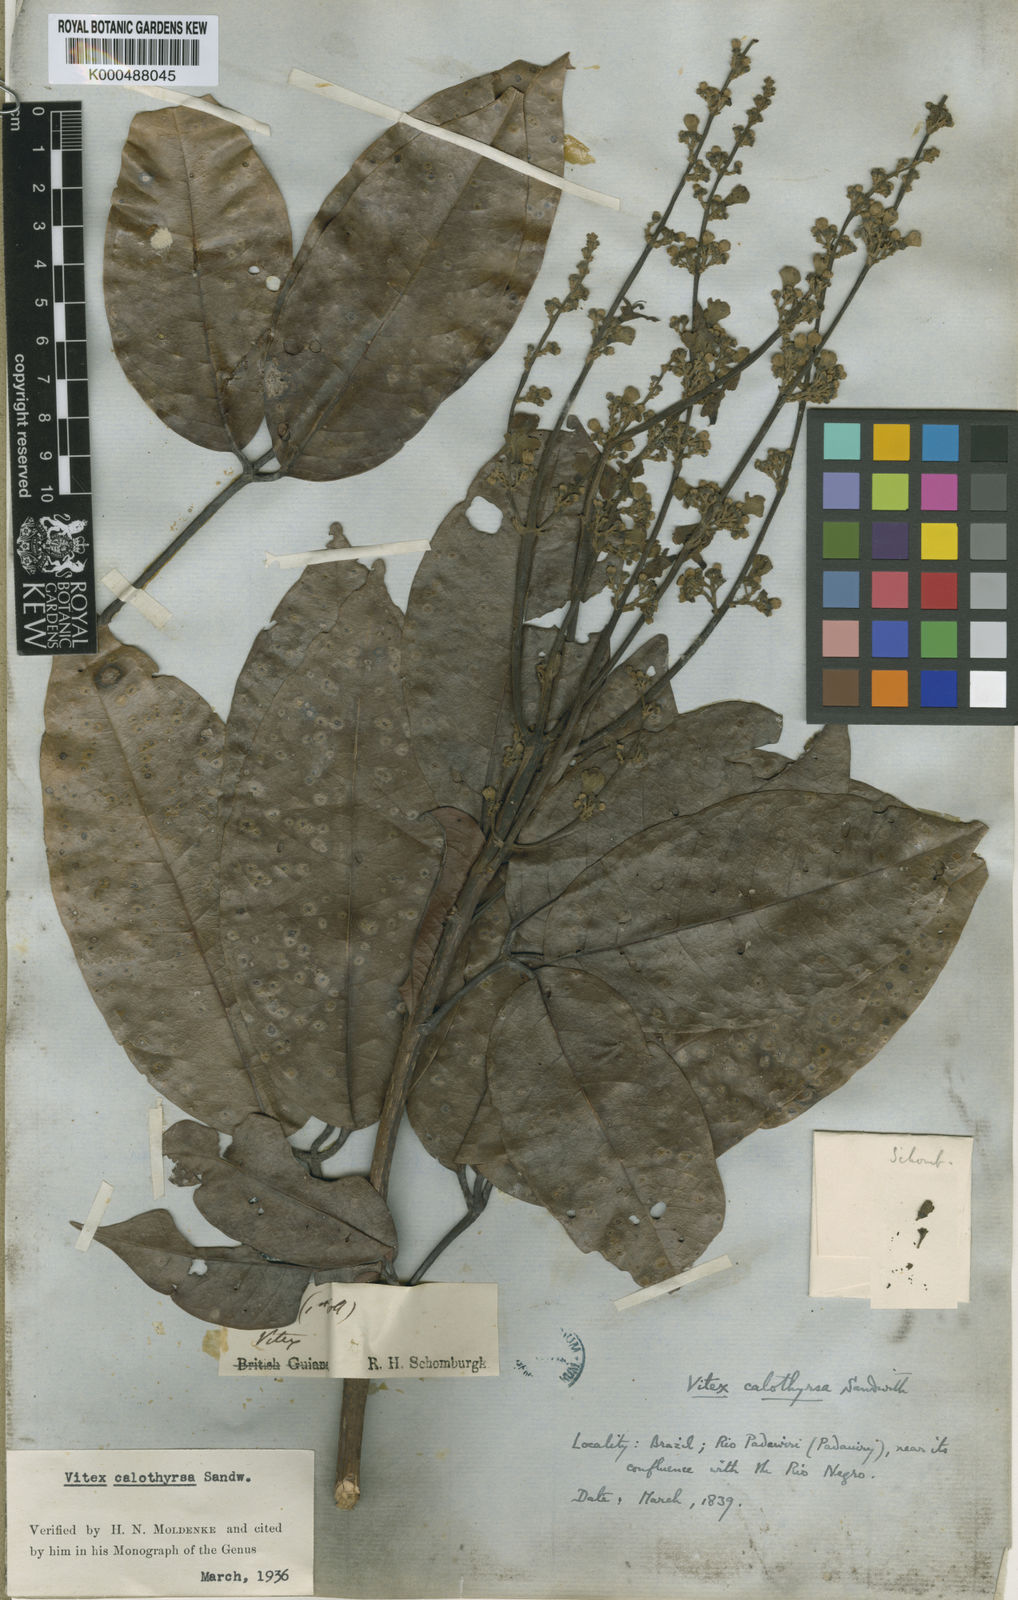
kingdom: Plantae
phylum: Tracheophyta
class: Magnoliopsida
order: Lamiales
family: Lamiaceae
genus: Vitex
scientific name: Vitex calothyrsa
